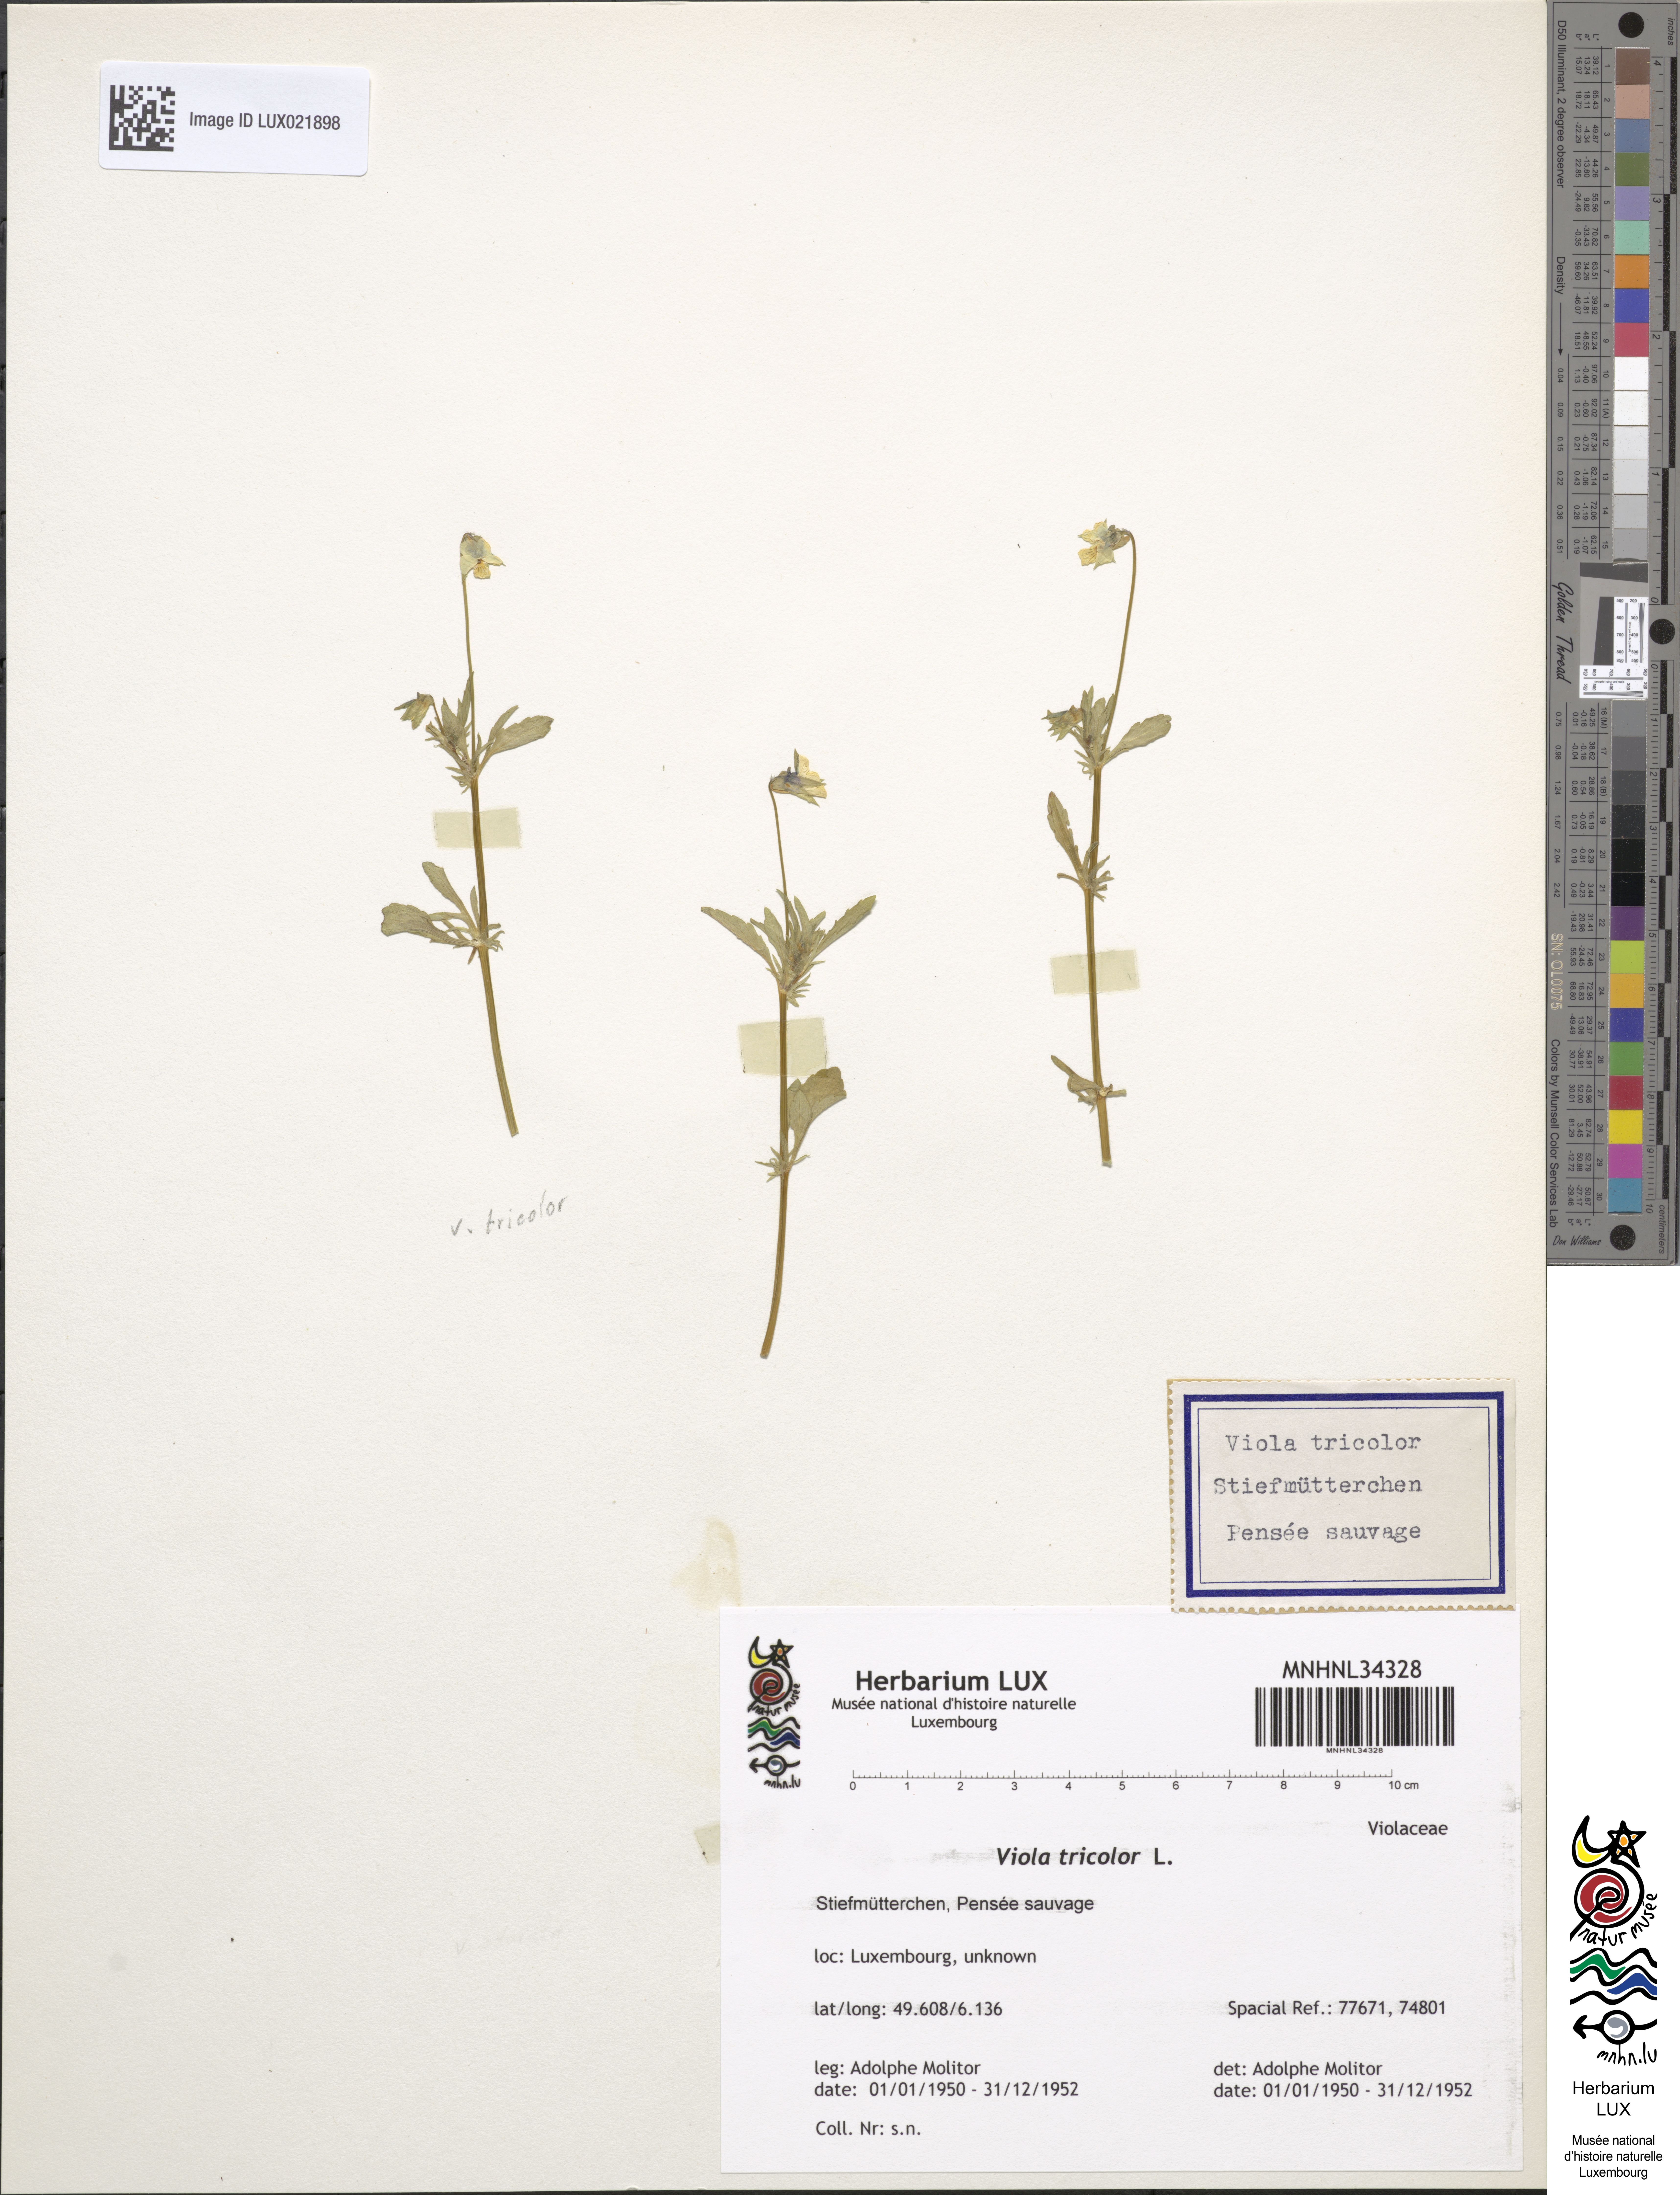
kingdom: Plantae
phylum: Tracheophyta
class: Magnoliopsida
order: Malpighiales
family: Violaceae
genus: Viola
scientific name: Viola tricolor
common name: Pansy
